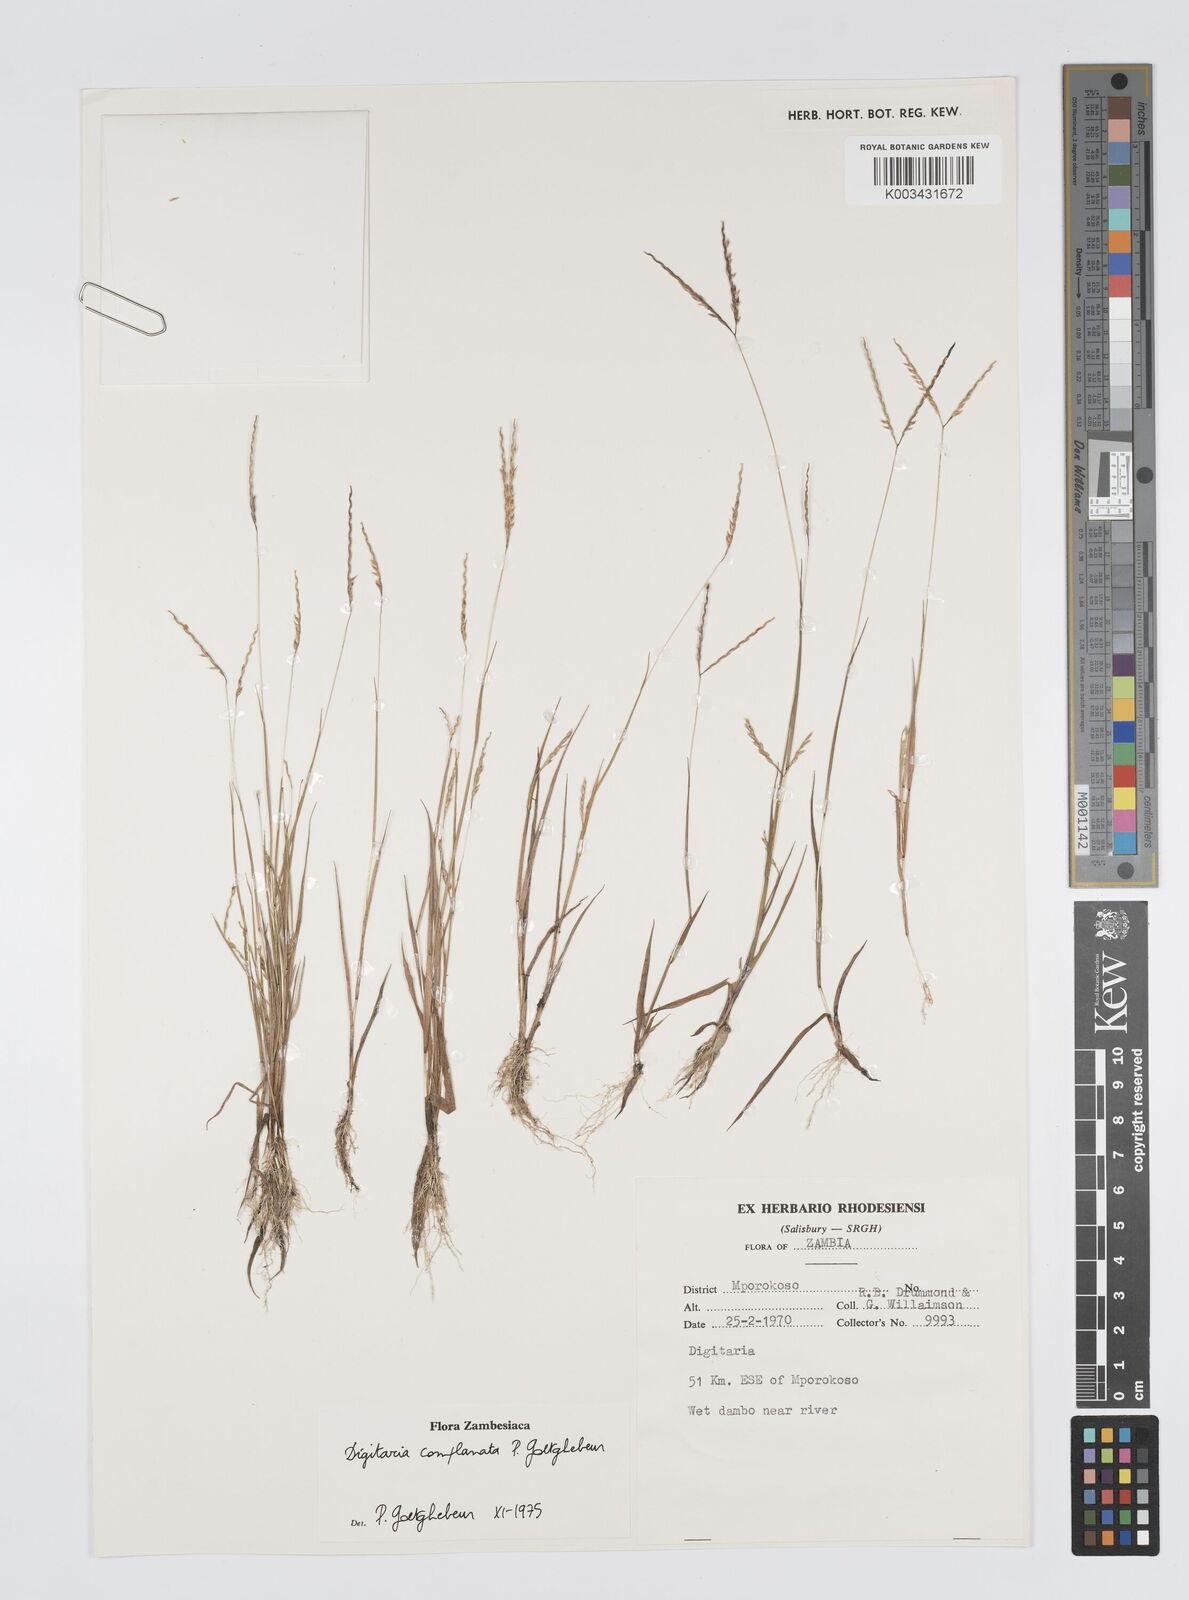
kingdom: Plantae
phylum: Tracheophyta
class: Liliopsida
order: Poales
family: Poaceae
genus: Digitaria
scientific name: Digitaria complanata
